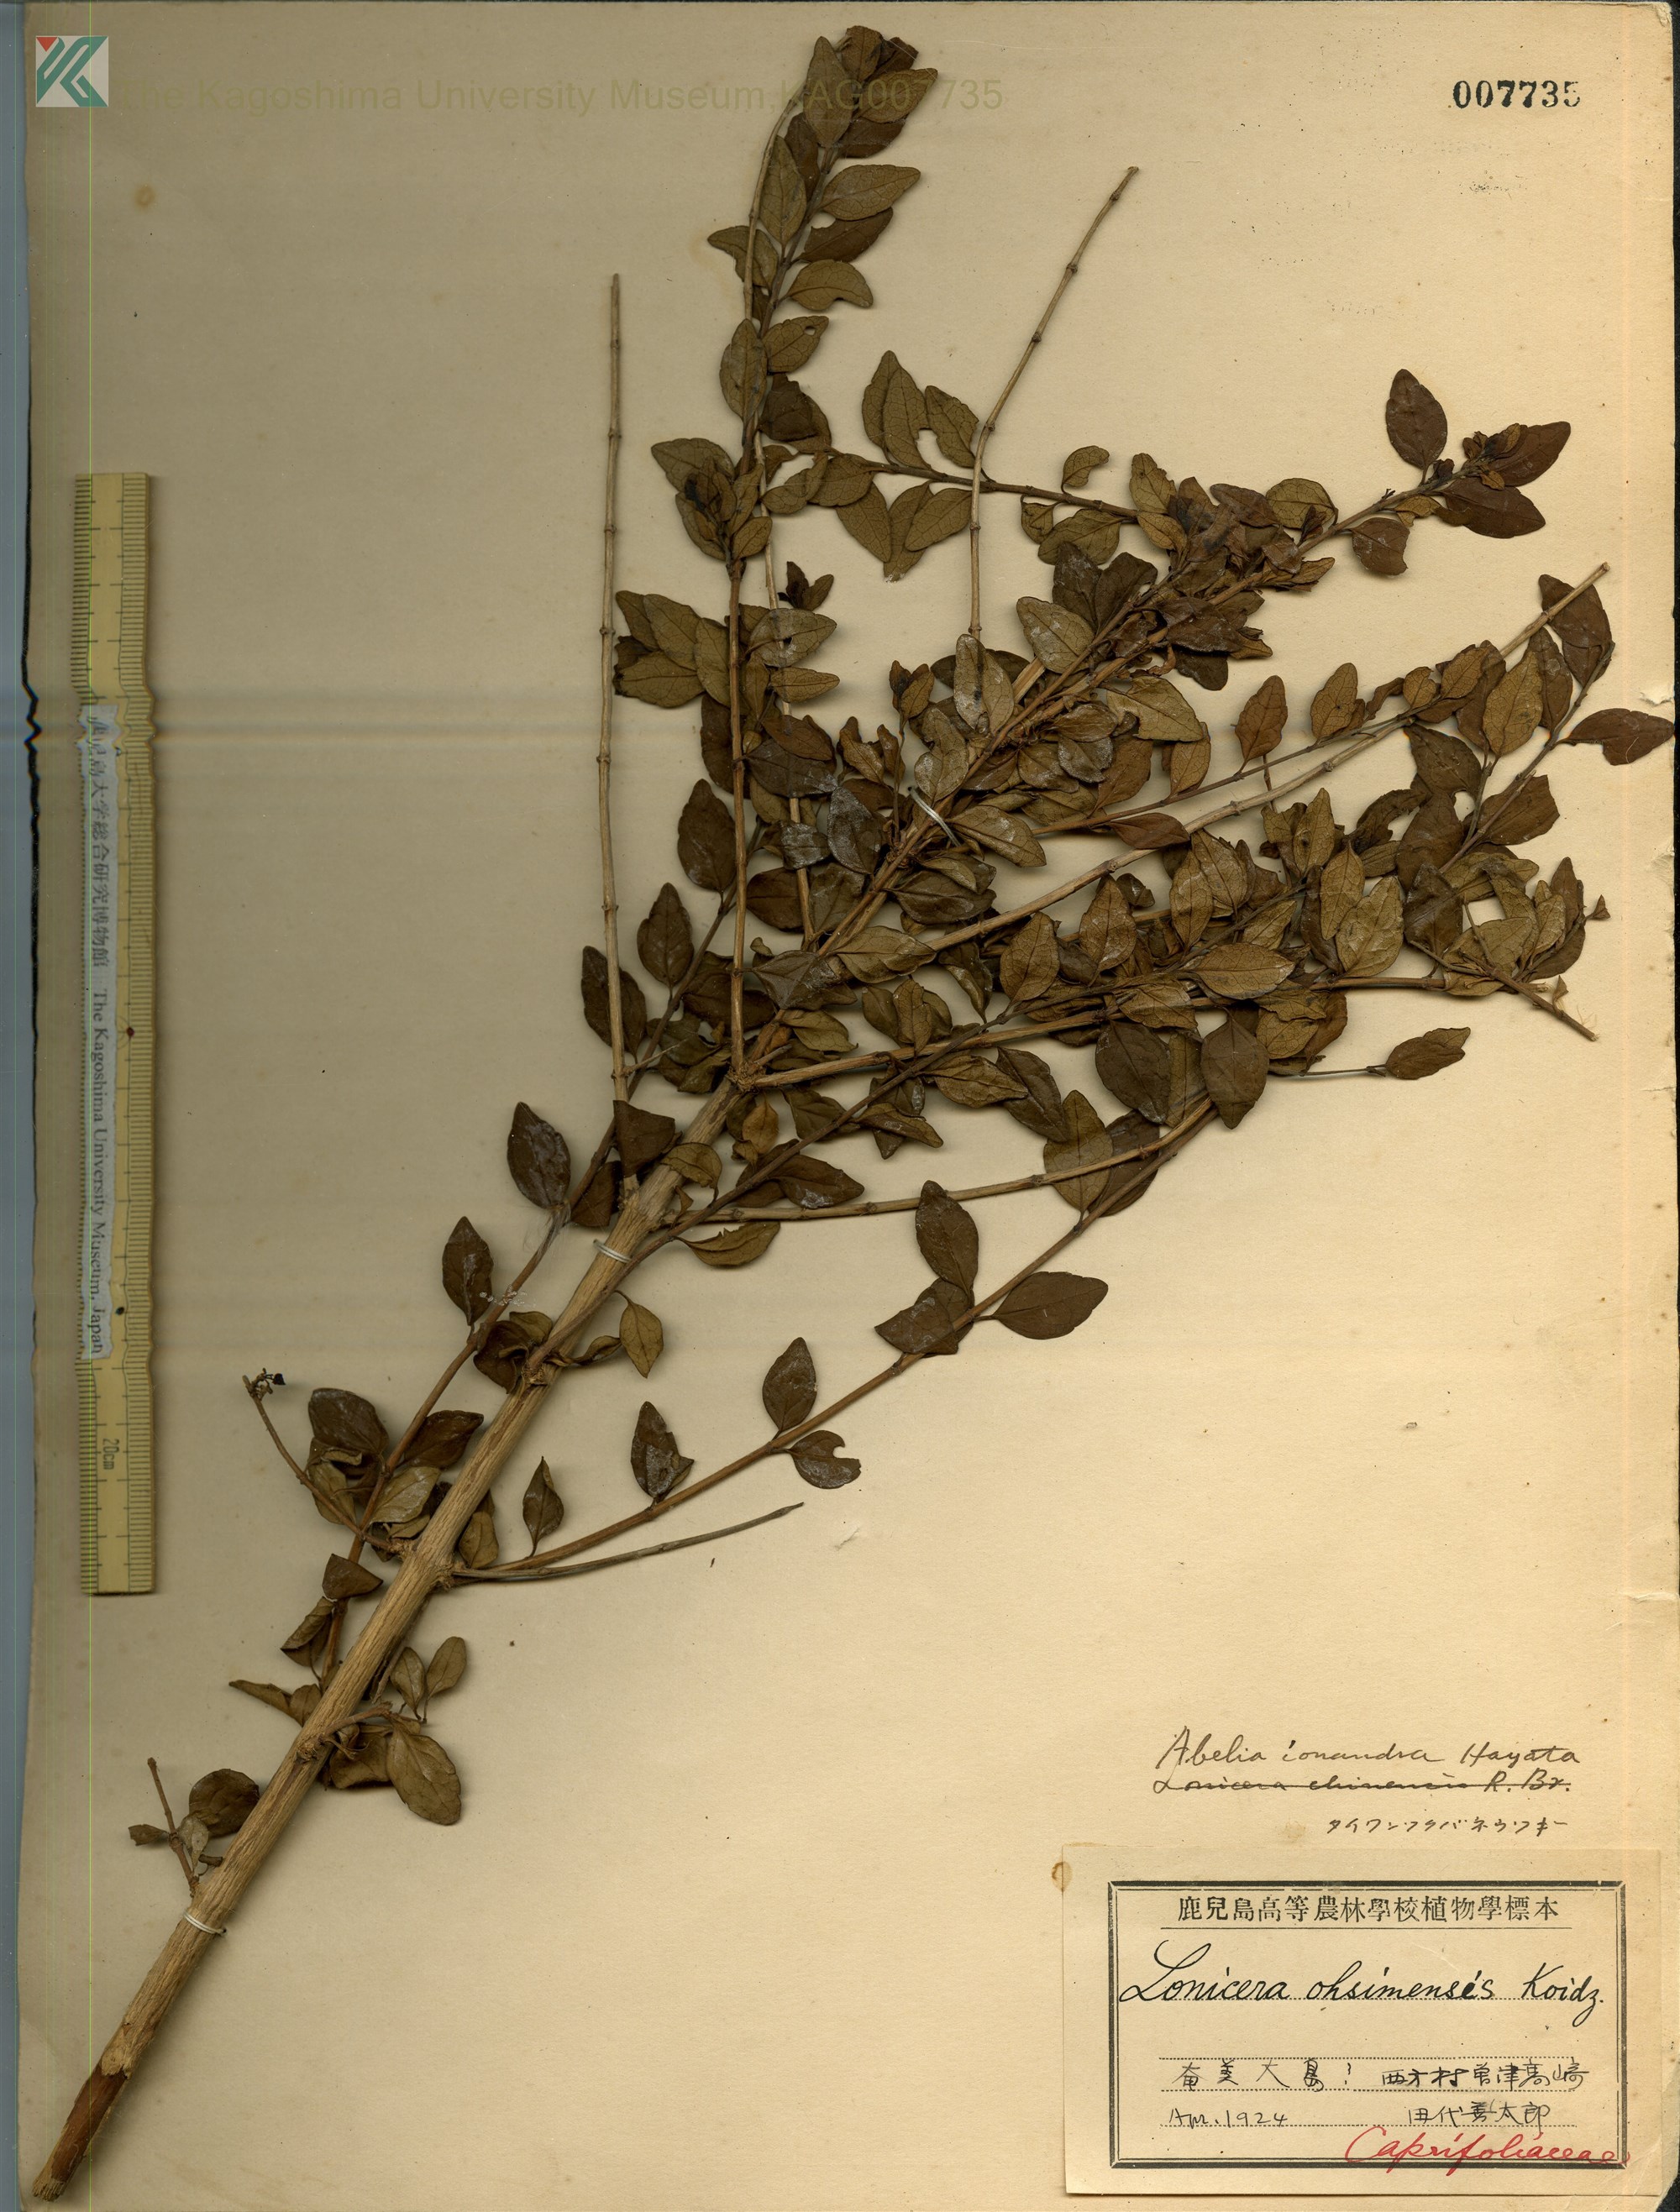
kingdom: Plantae
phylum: Tracheophyta
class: Magnoliopsida
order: Dipsacales
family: Caprifoliaceae
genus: Abelia
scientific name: Abelia chinensis
